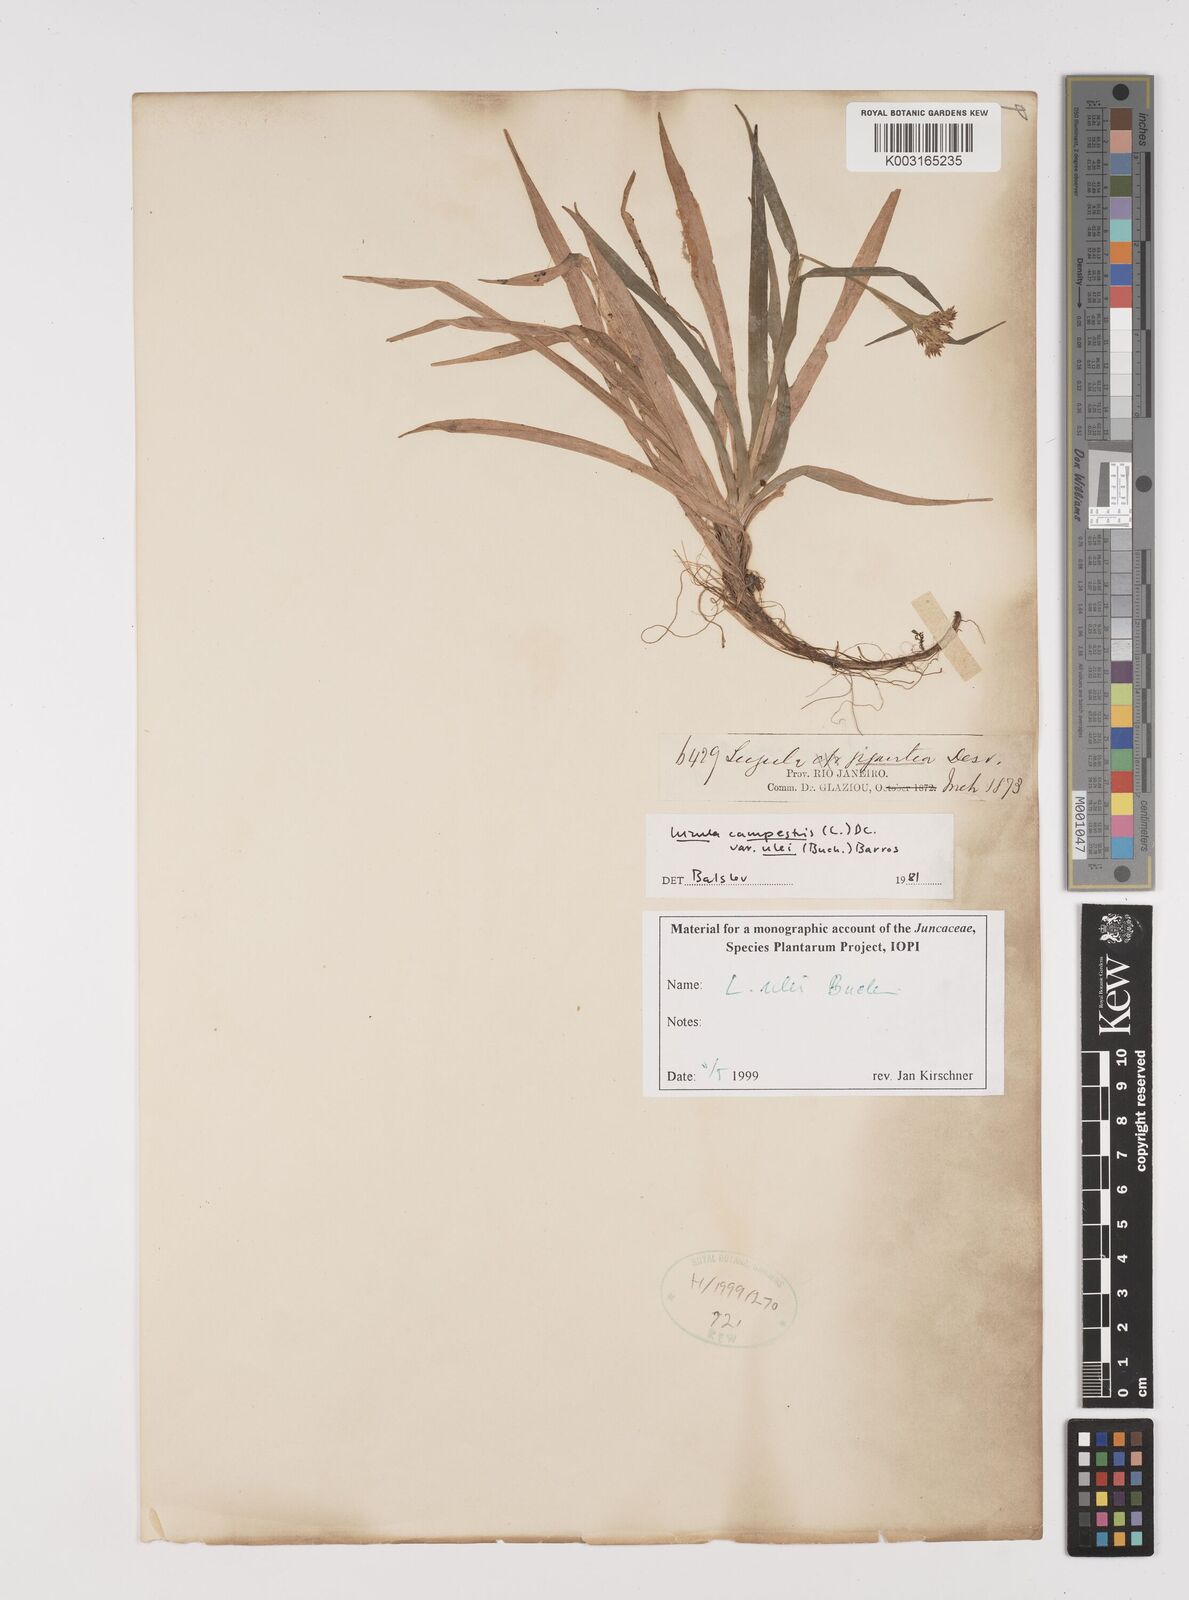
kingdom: Plantae
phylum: Tracheophyta
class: Liliopsida
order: Poales
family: Juncaceae
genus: Luzula
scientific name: Luzula ulei
